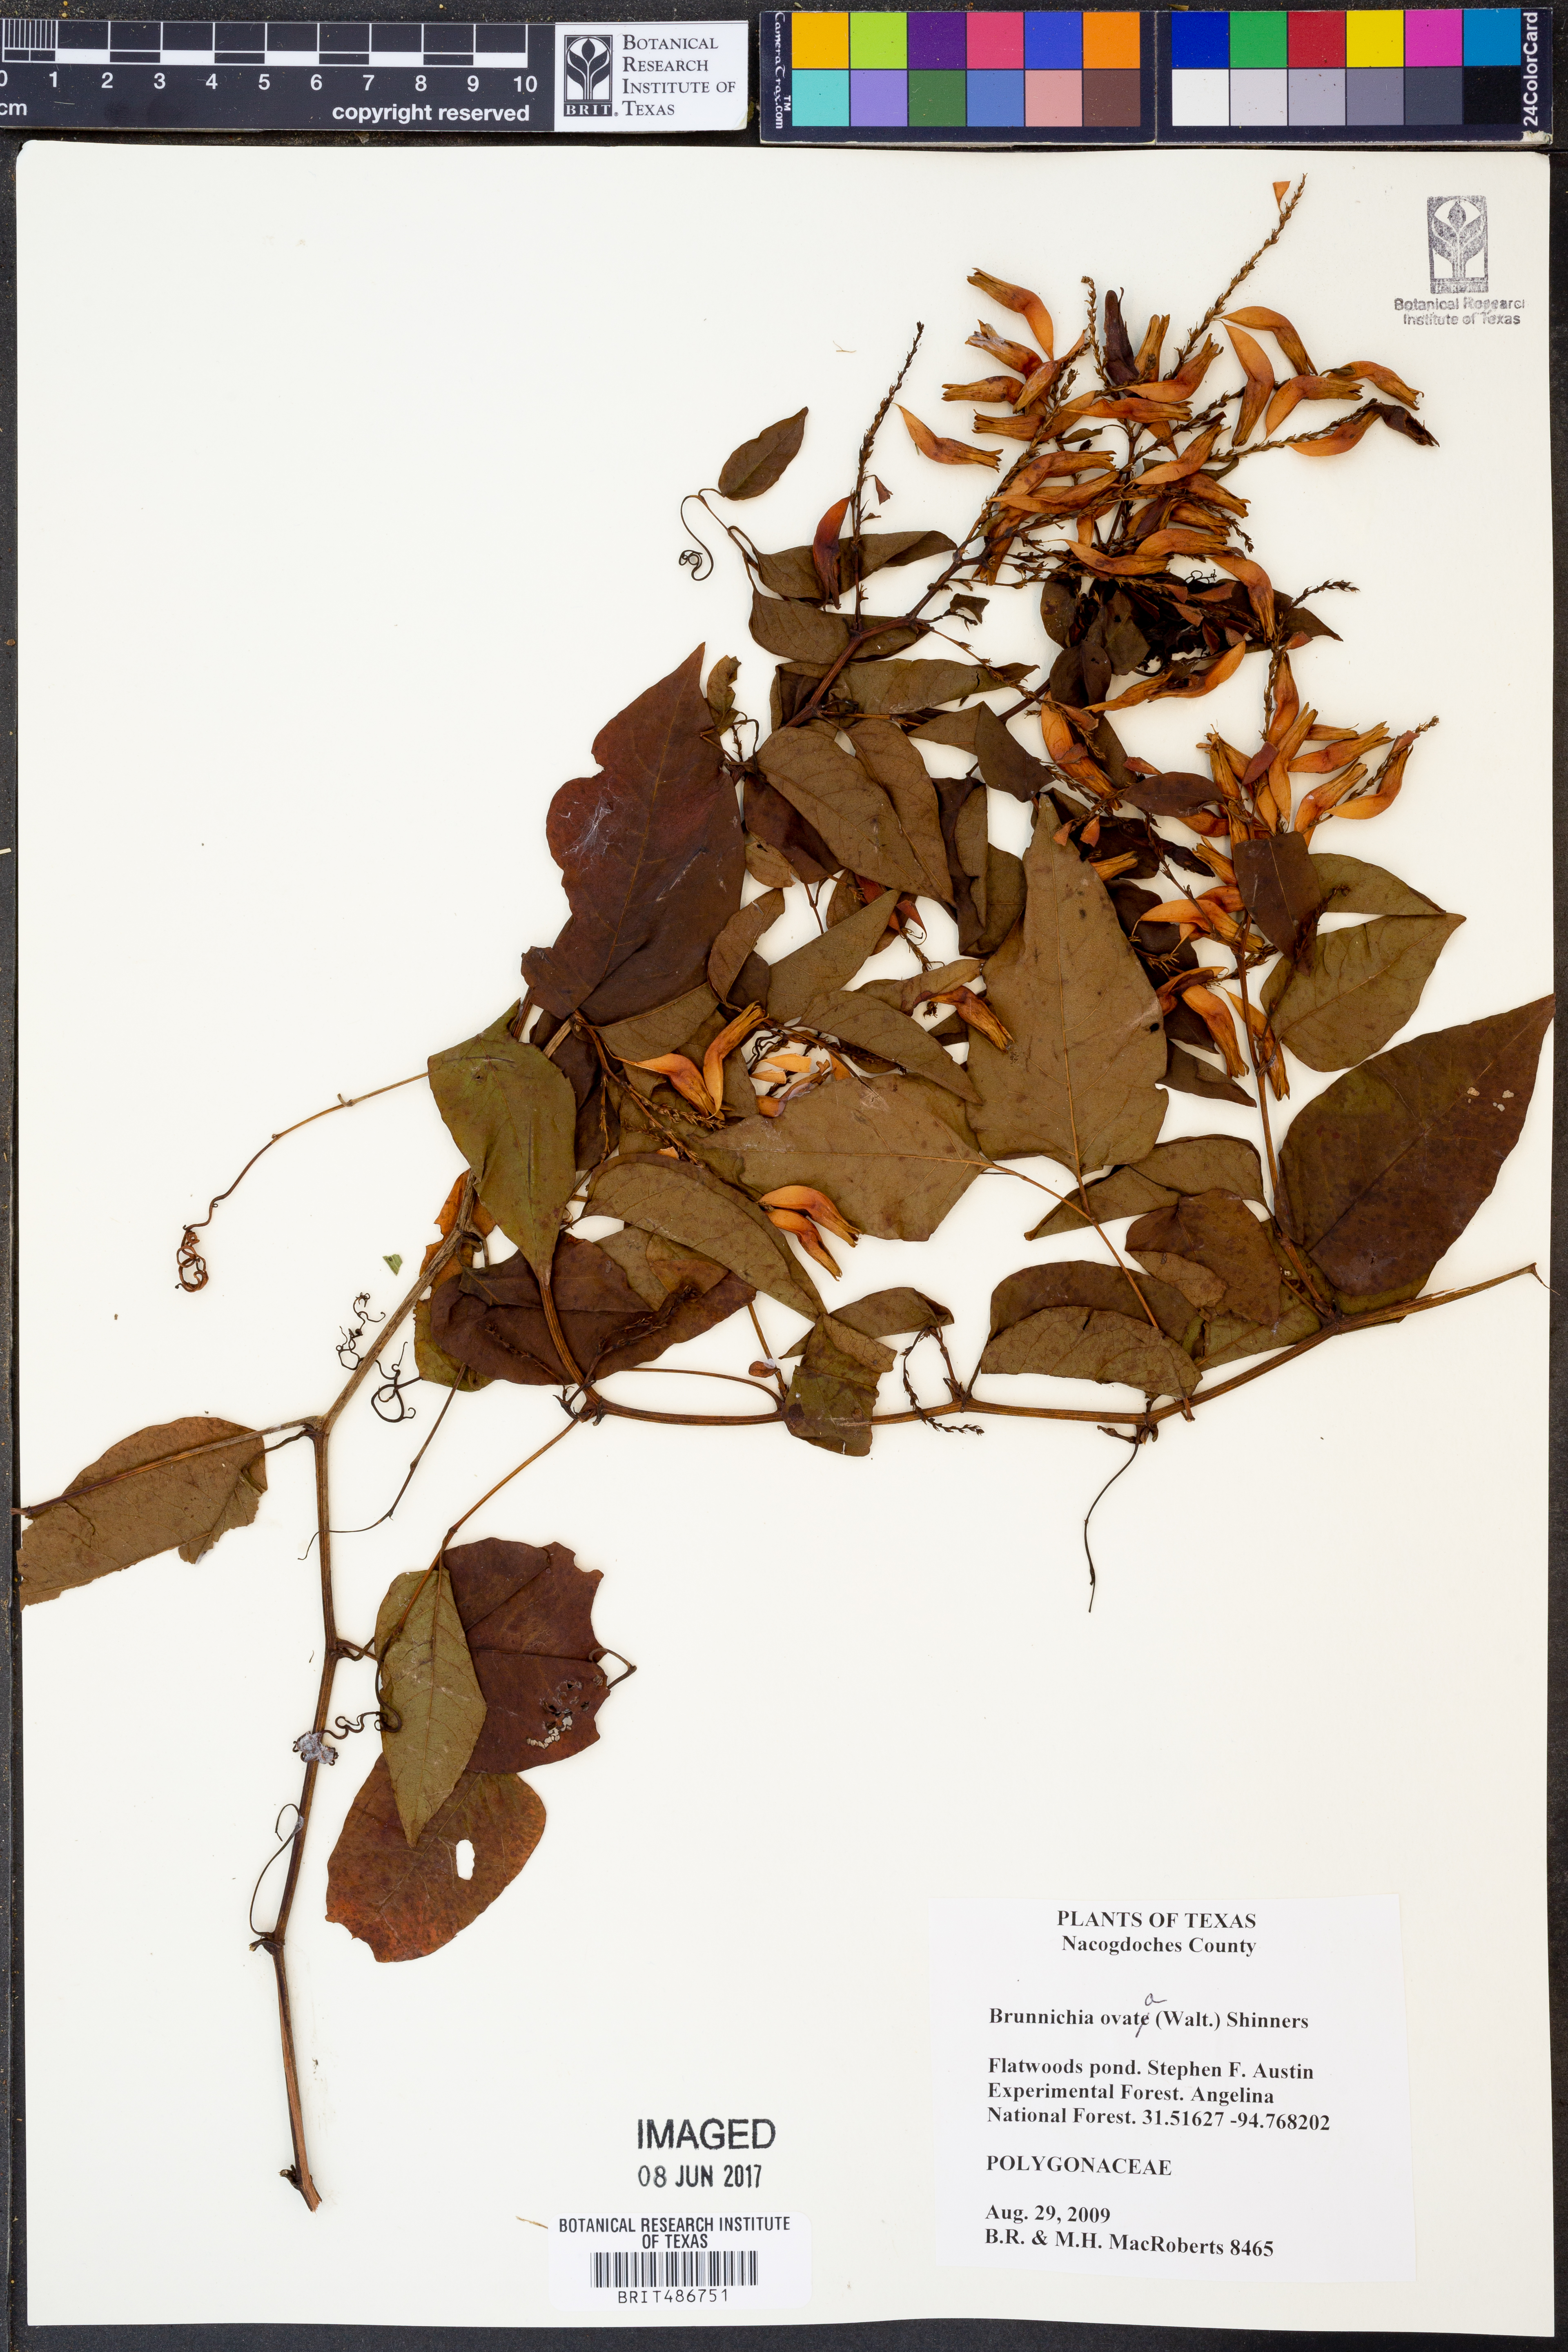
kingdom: Plantae
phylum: Tracheophyta
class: Magnoliopsida
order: Caryophyllales
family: Polygonaceae
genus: Brunnichia
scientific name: Brunnichia ovata
